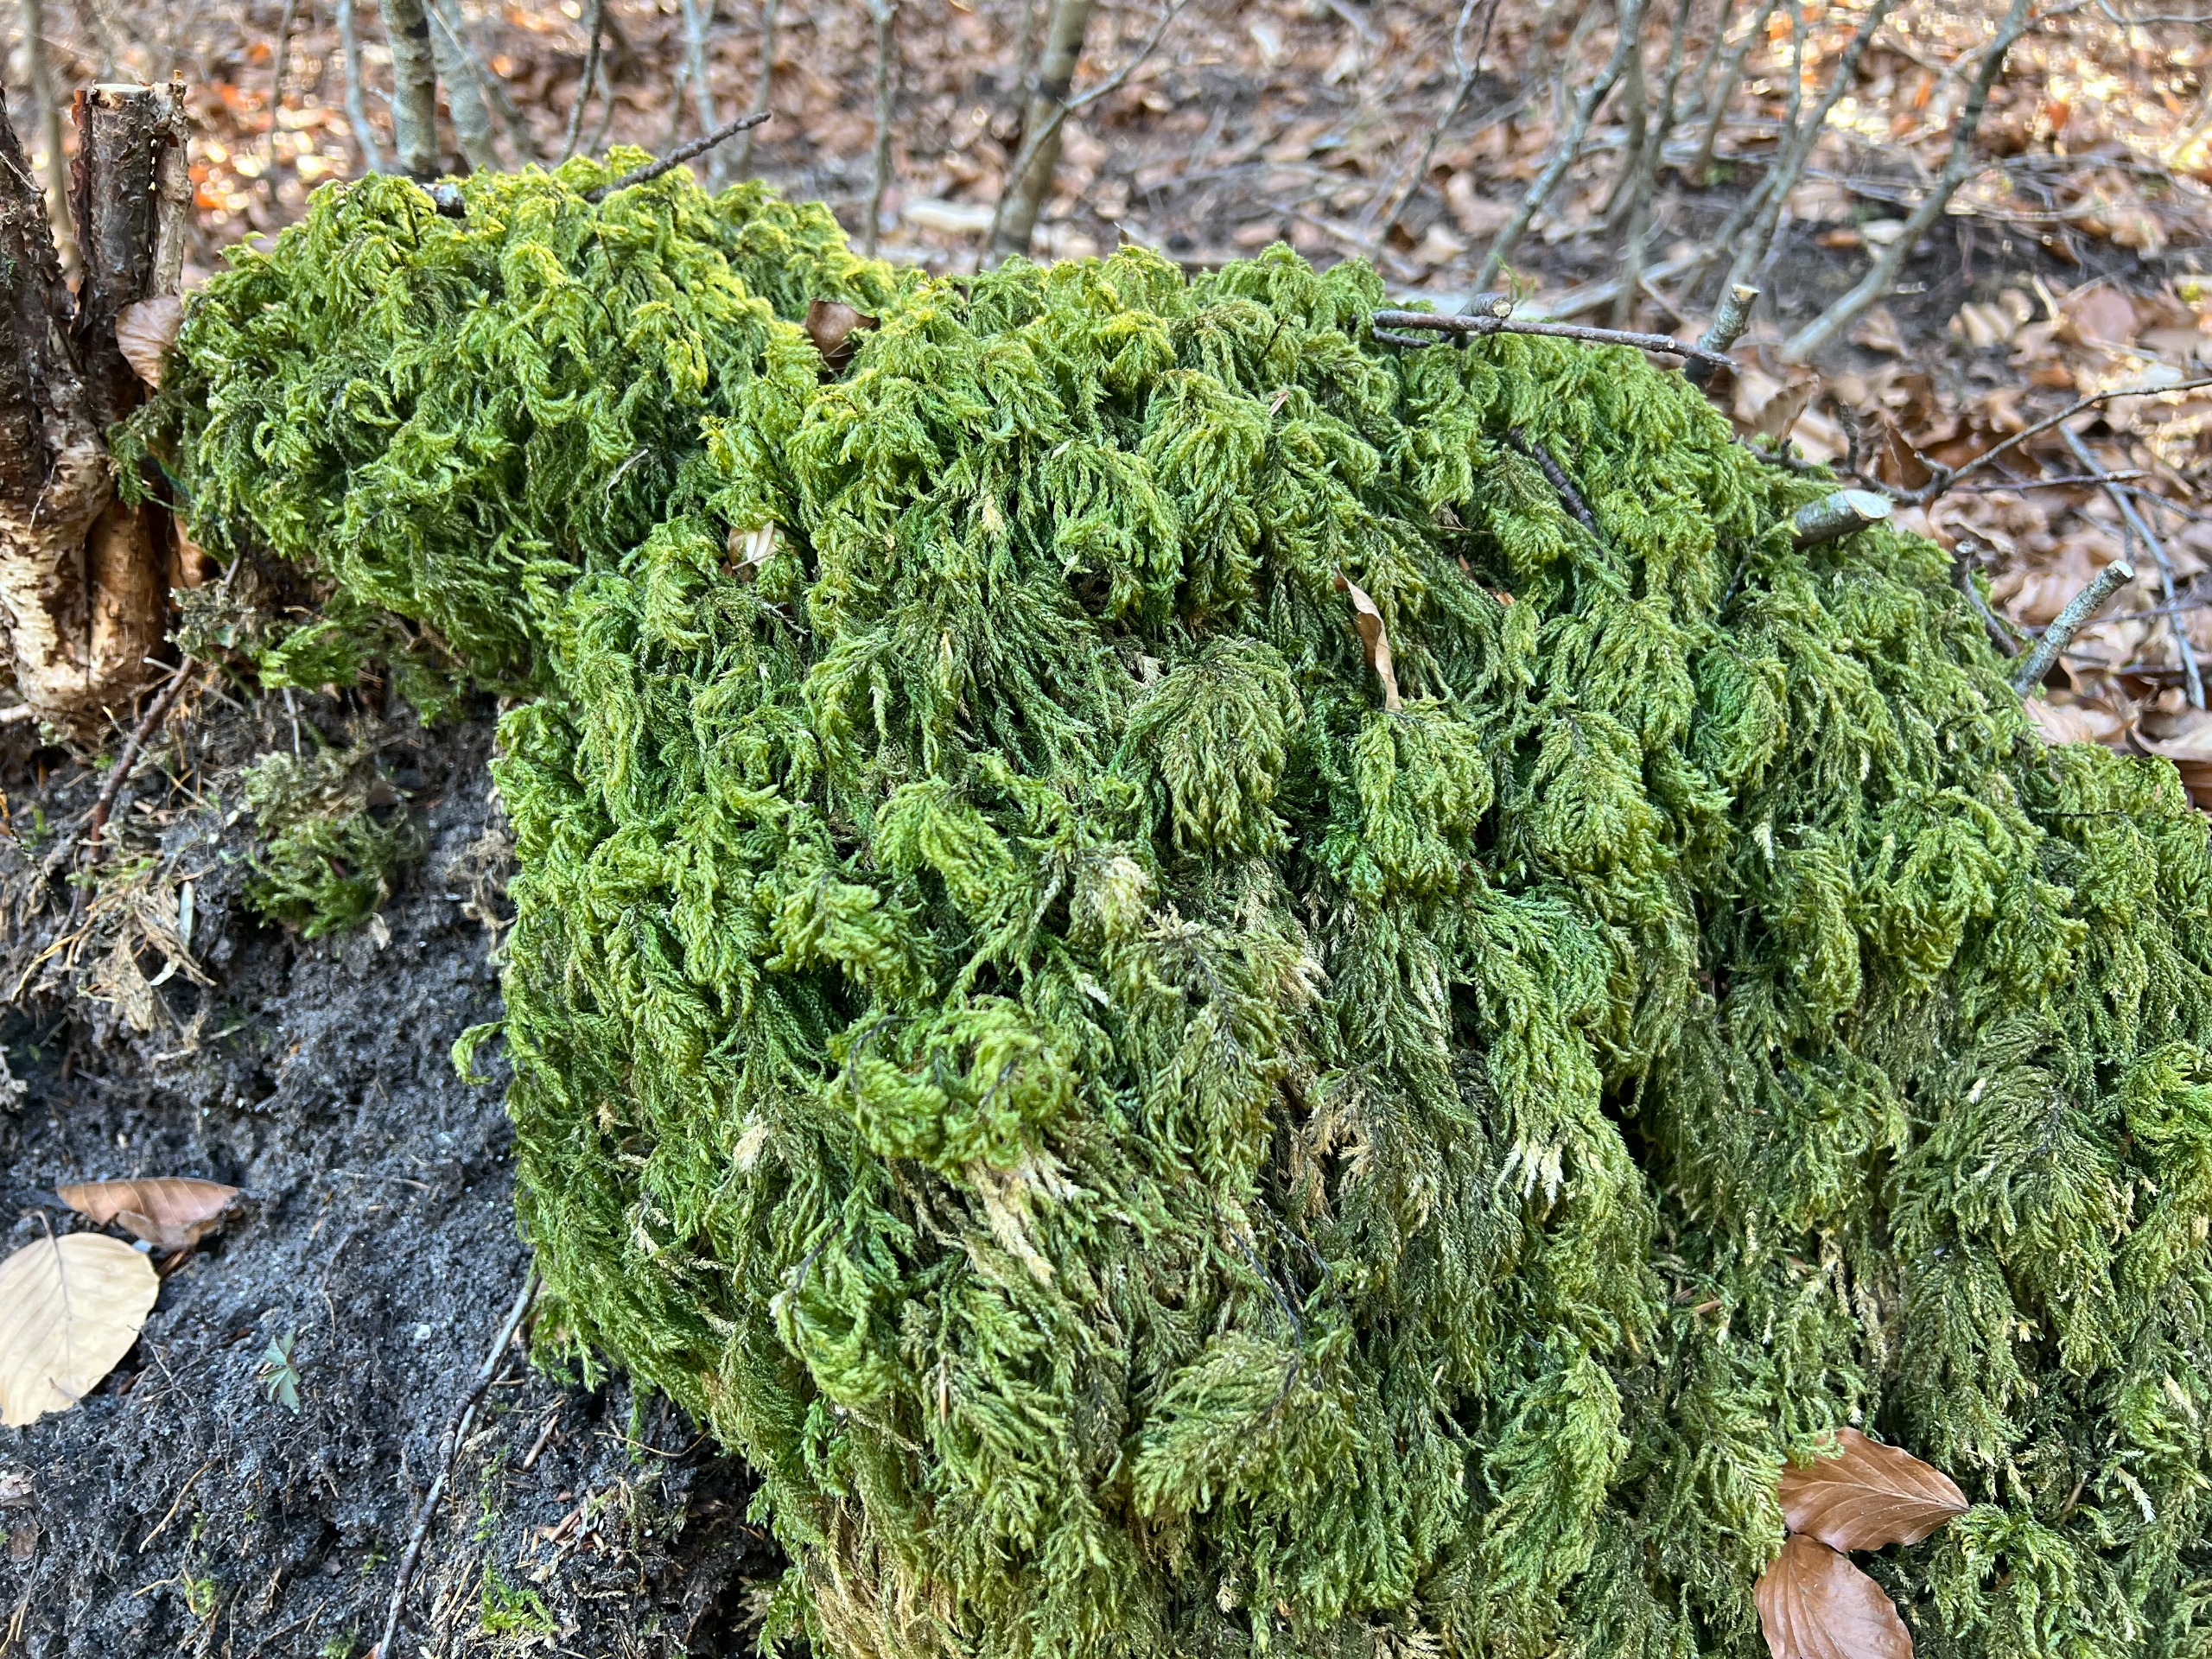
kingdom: Plantae
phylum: Bryophyta
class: Bryopsida
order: Hypnales
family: Neckeraceae
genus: Thamnobryum
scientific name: Thamnobryum alopecurum
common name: Mat bækkost
